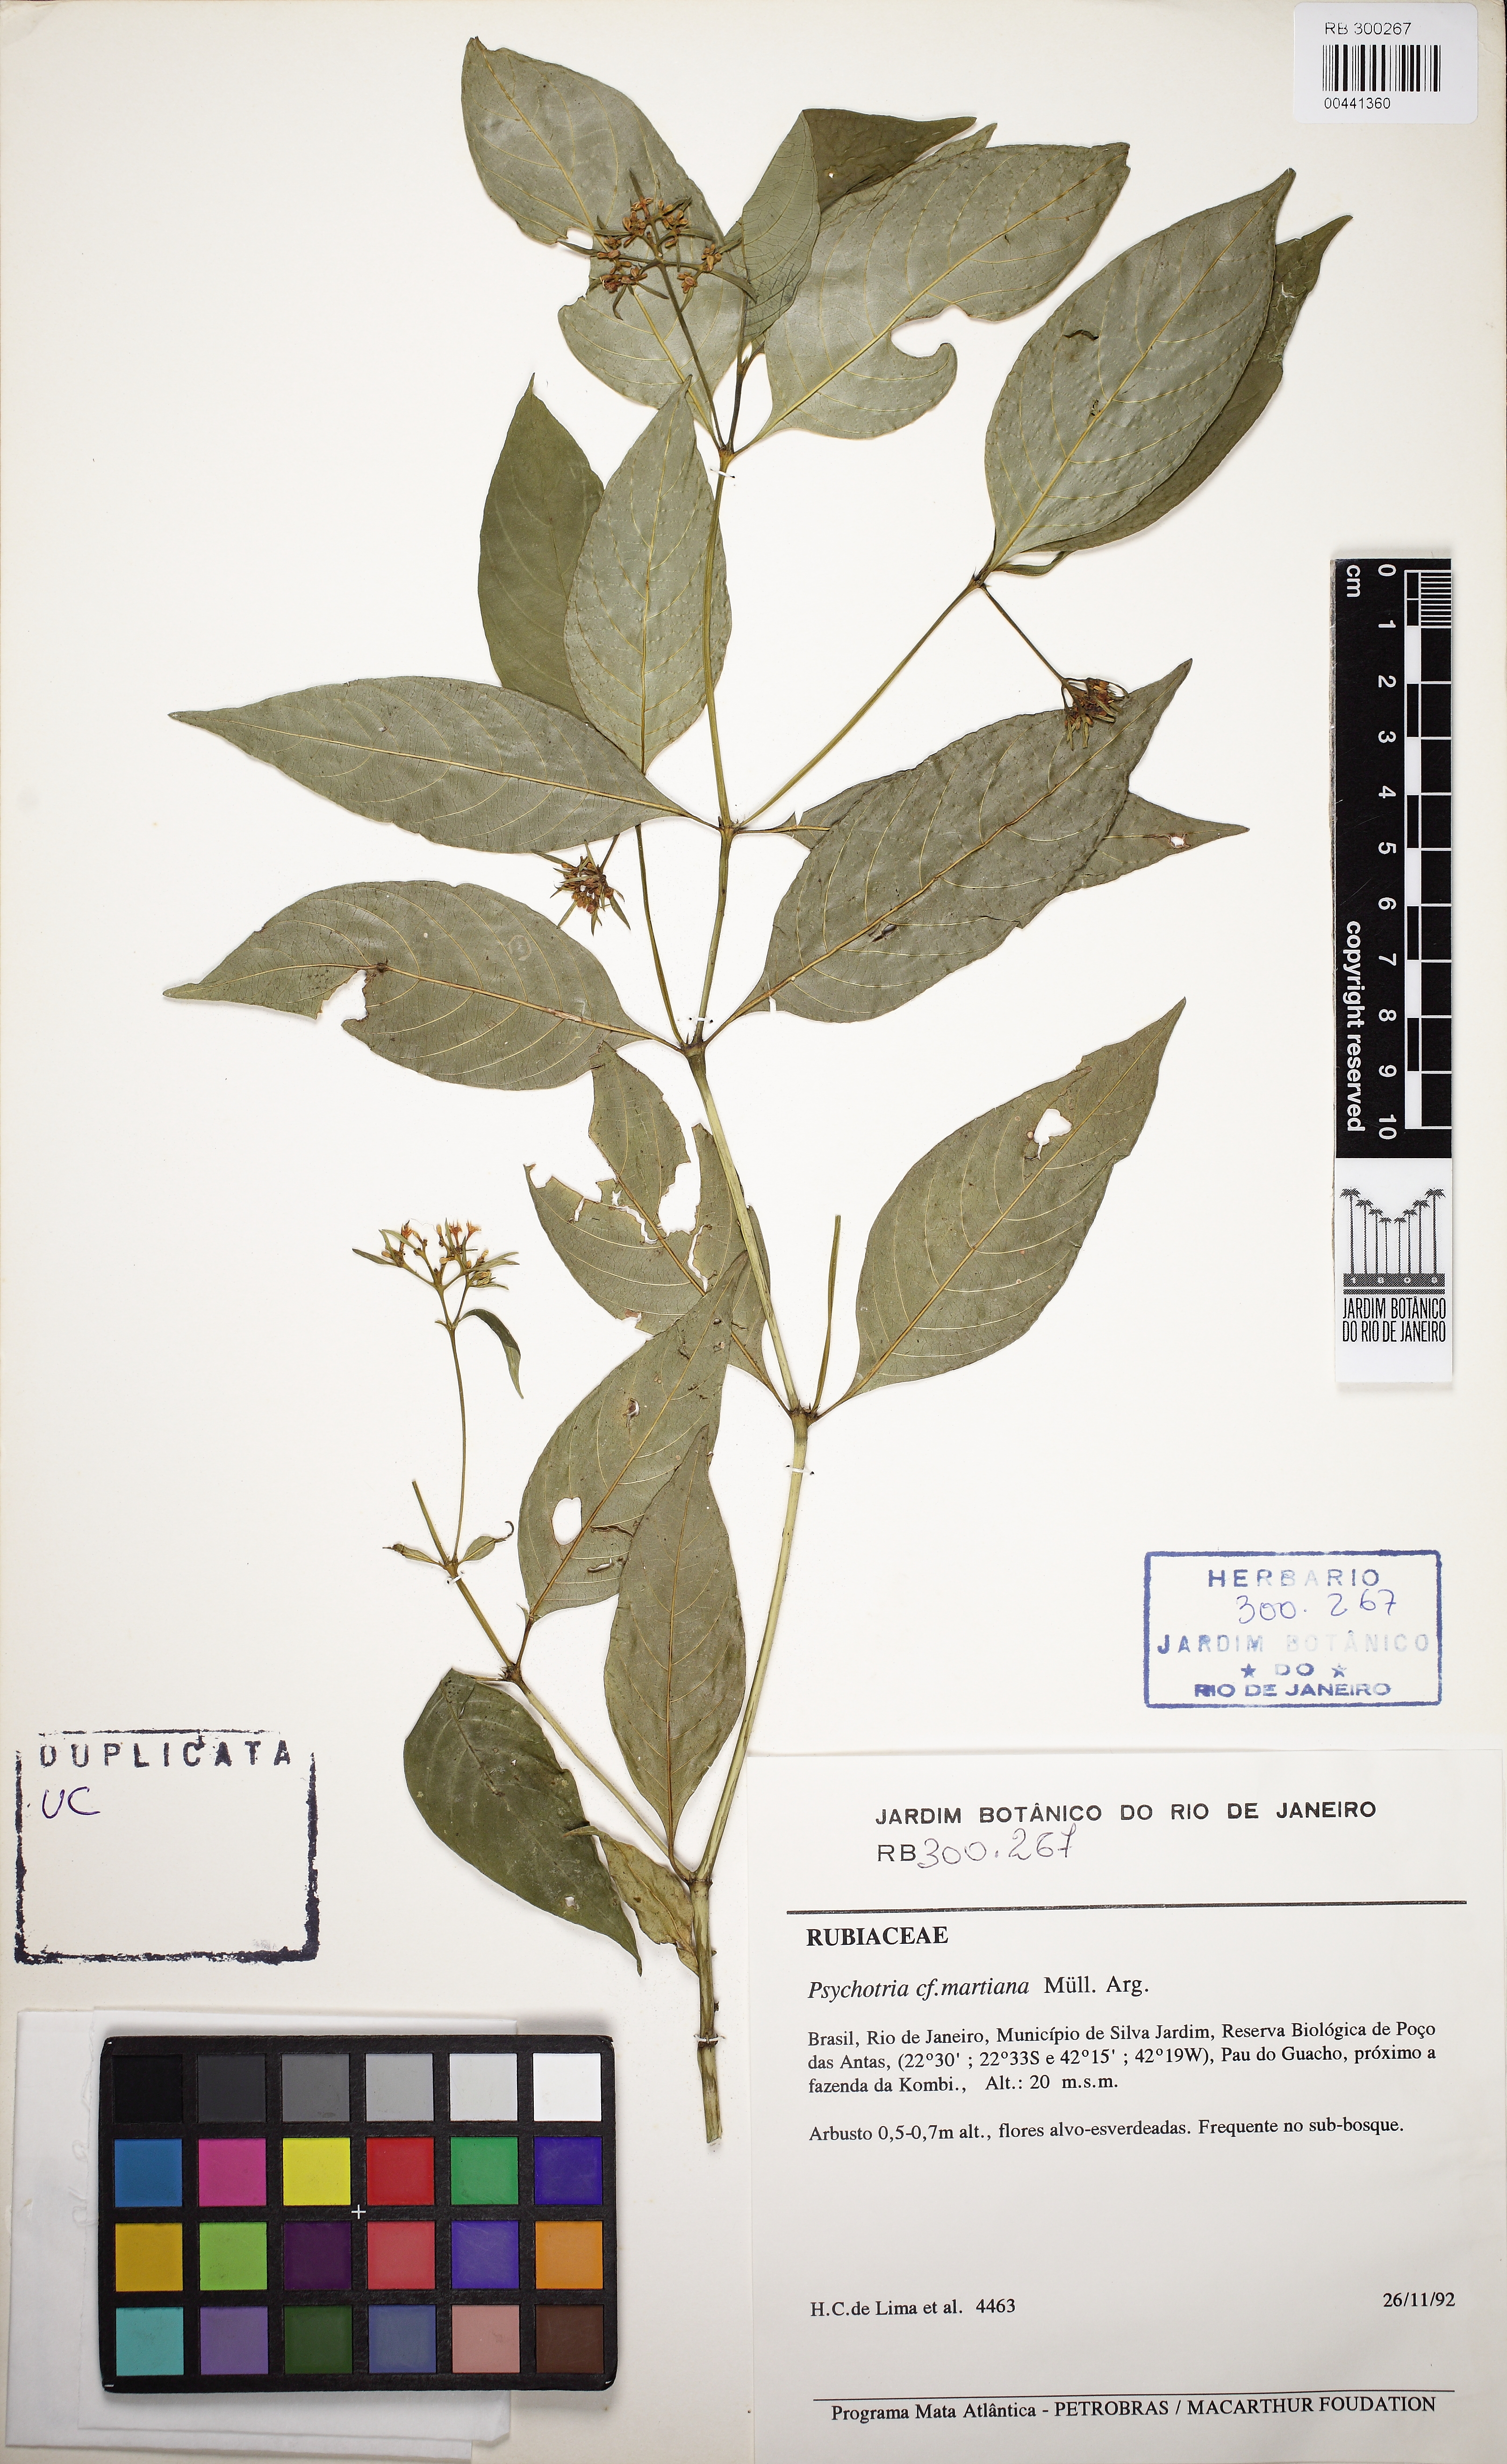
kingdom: Plantae
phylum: Tracheophyta
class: Magnoliopsida
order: Gentianales
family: Rubiaceae
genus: Palicourea
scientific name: Palicourea tenerior
